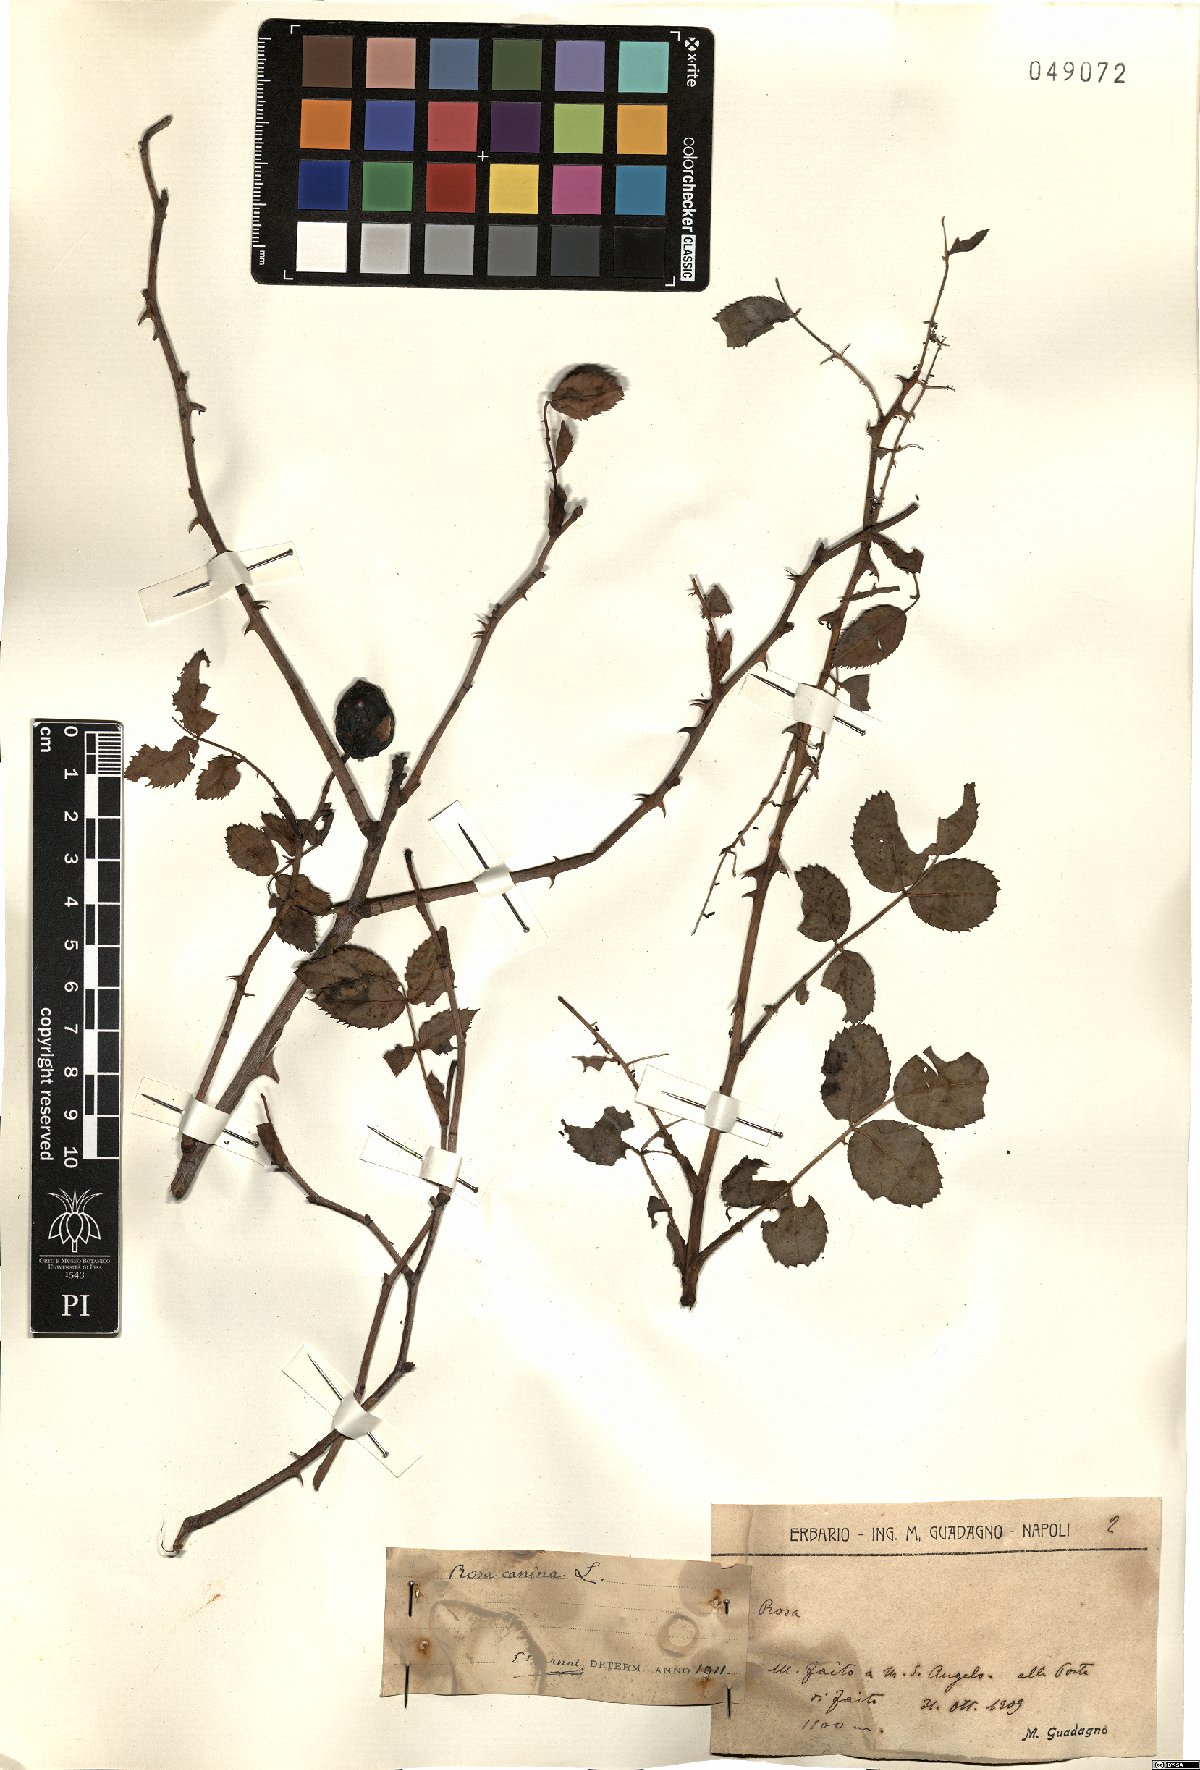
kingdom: Plantae
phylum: Tracheophyta
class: Magnoliopsida
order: Rosales
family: Rosaceae
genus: Rosa
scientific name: Rosa canina
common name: Dog rose
